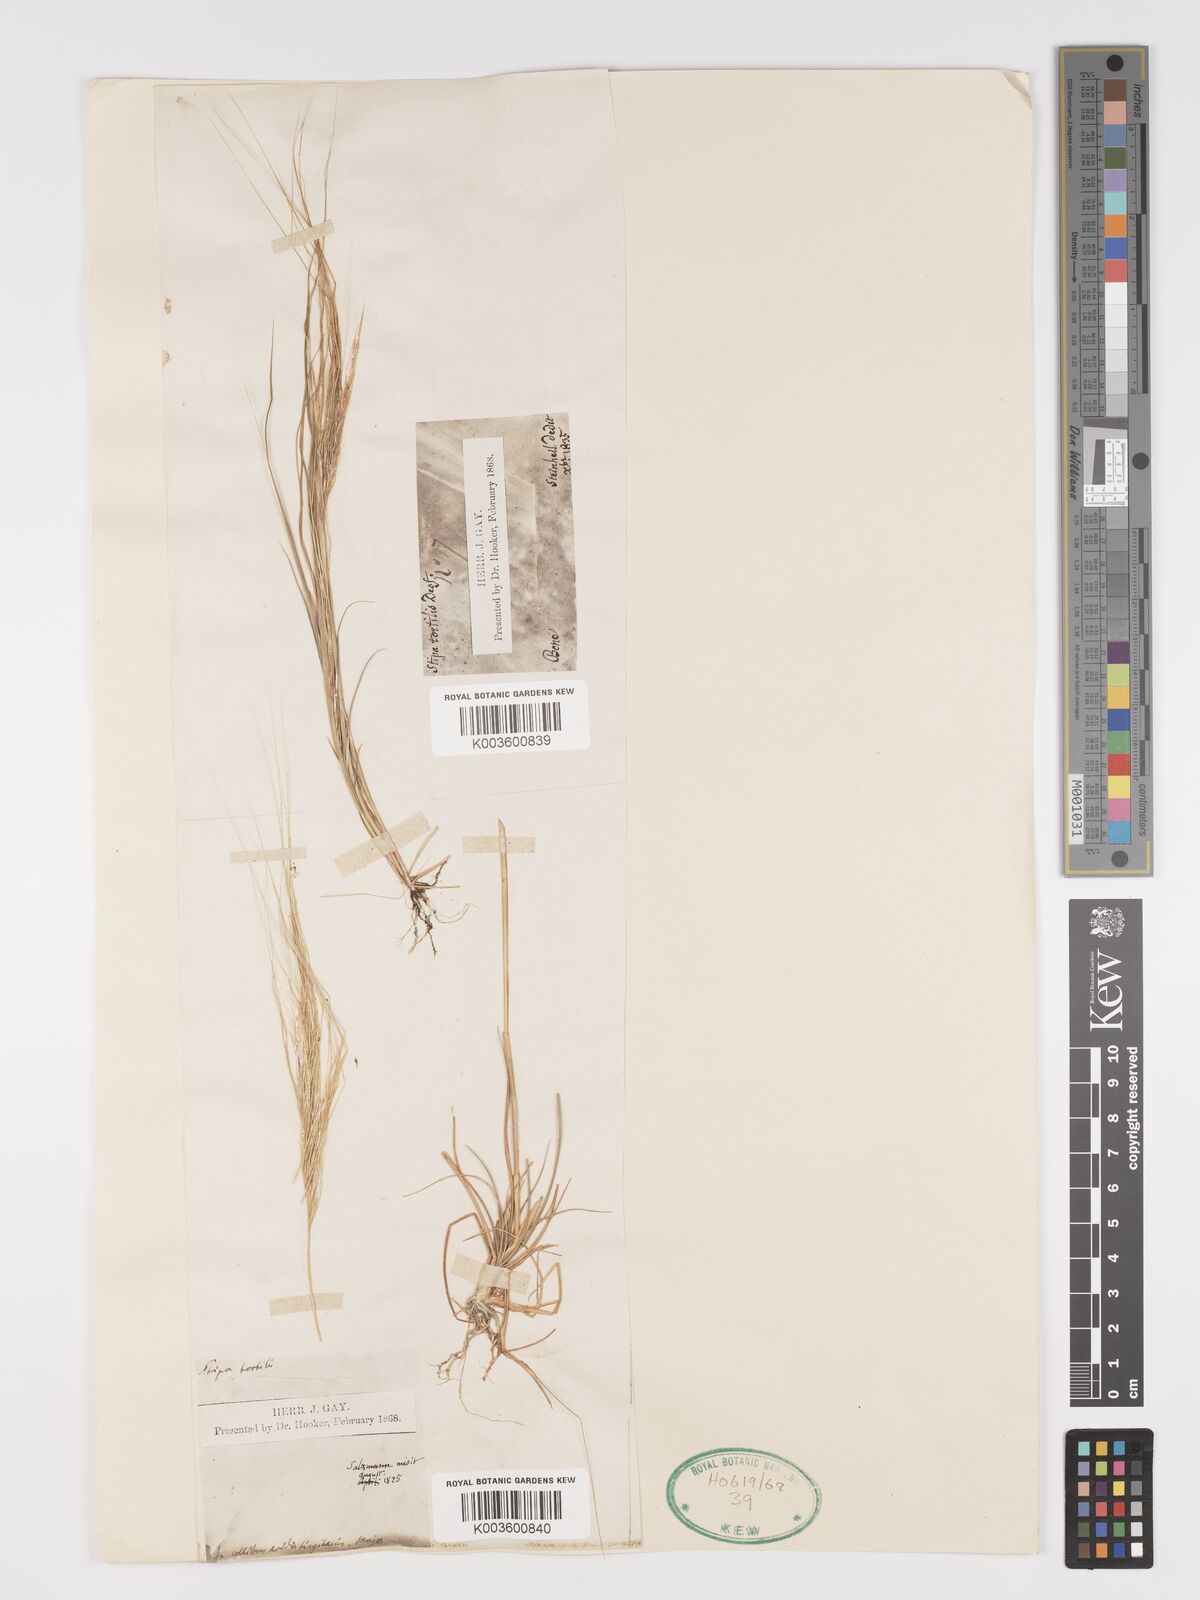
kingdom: Plantae
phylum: Tracheophyta
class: Liliopsida
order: Poales
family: Poaceae
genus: Stipellula
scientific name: Stipellula capensis
